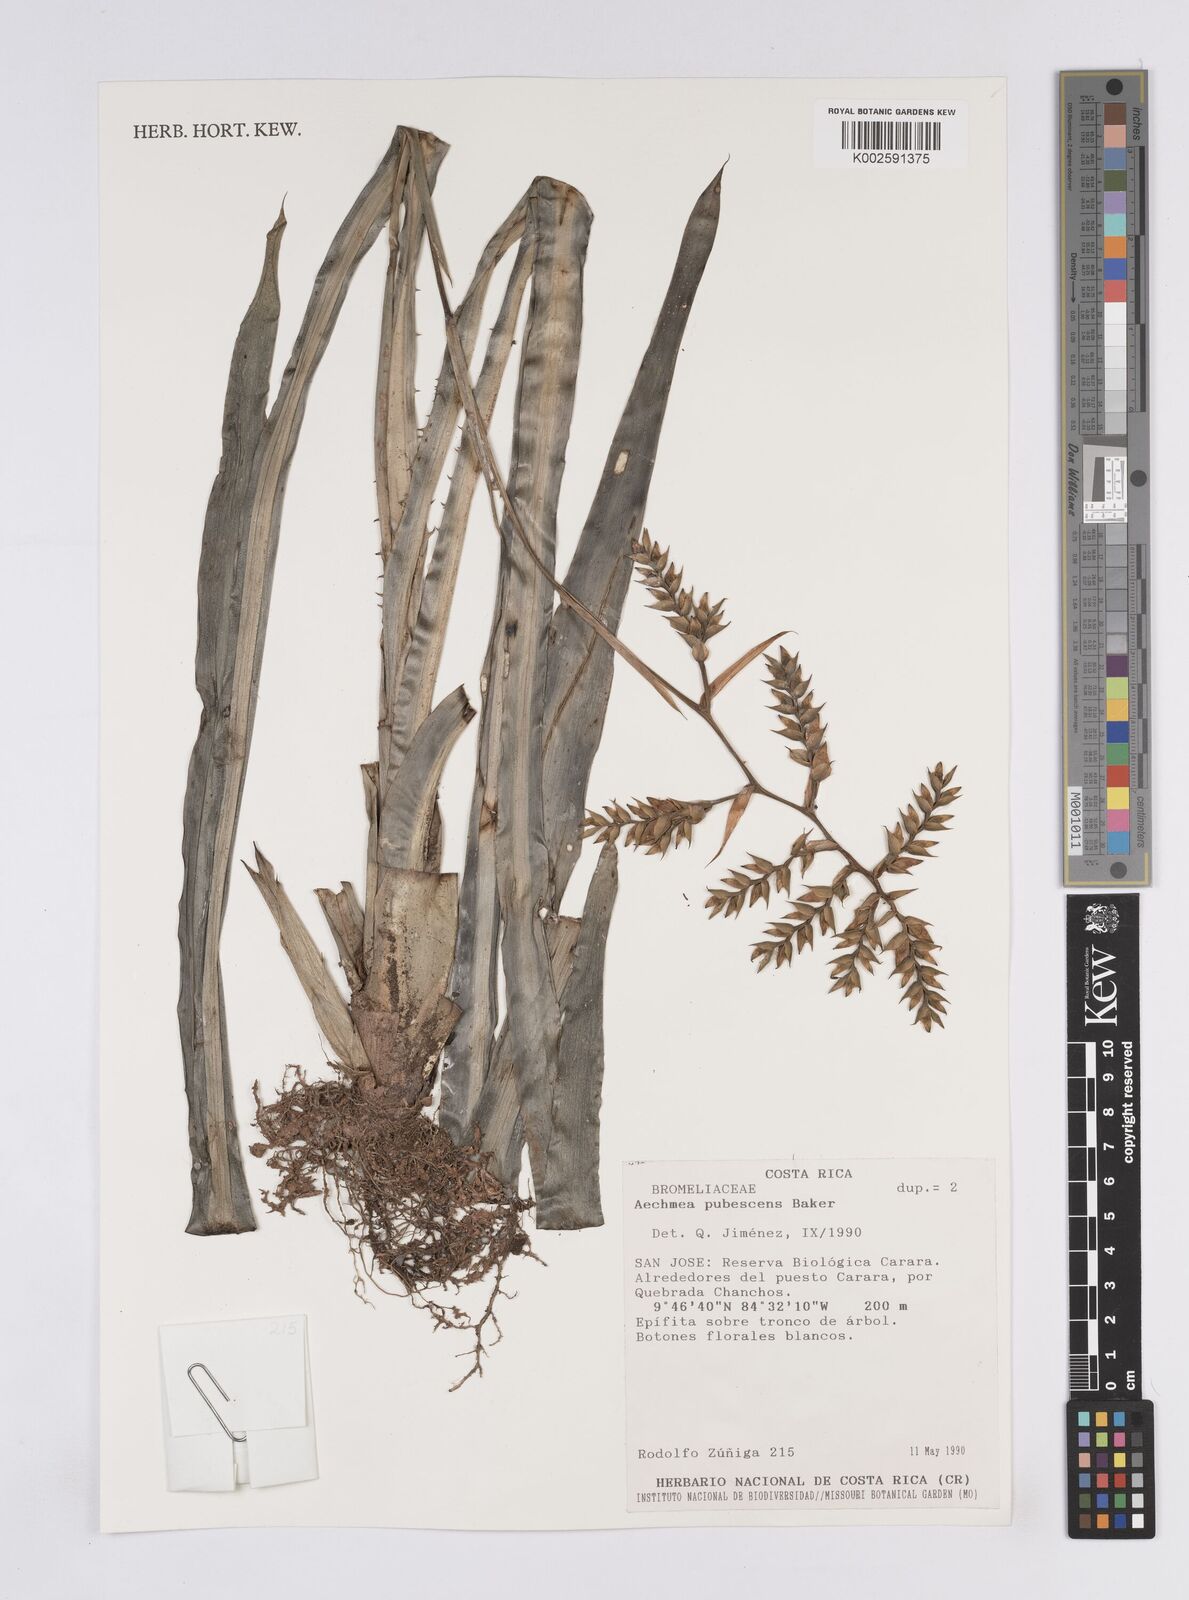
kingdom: Plantae
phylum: Tracheophyta
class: Liliopsida
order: Poales
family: Bromeliaceae
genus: Aechmea
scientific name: Aechmea pubescens
